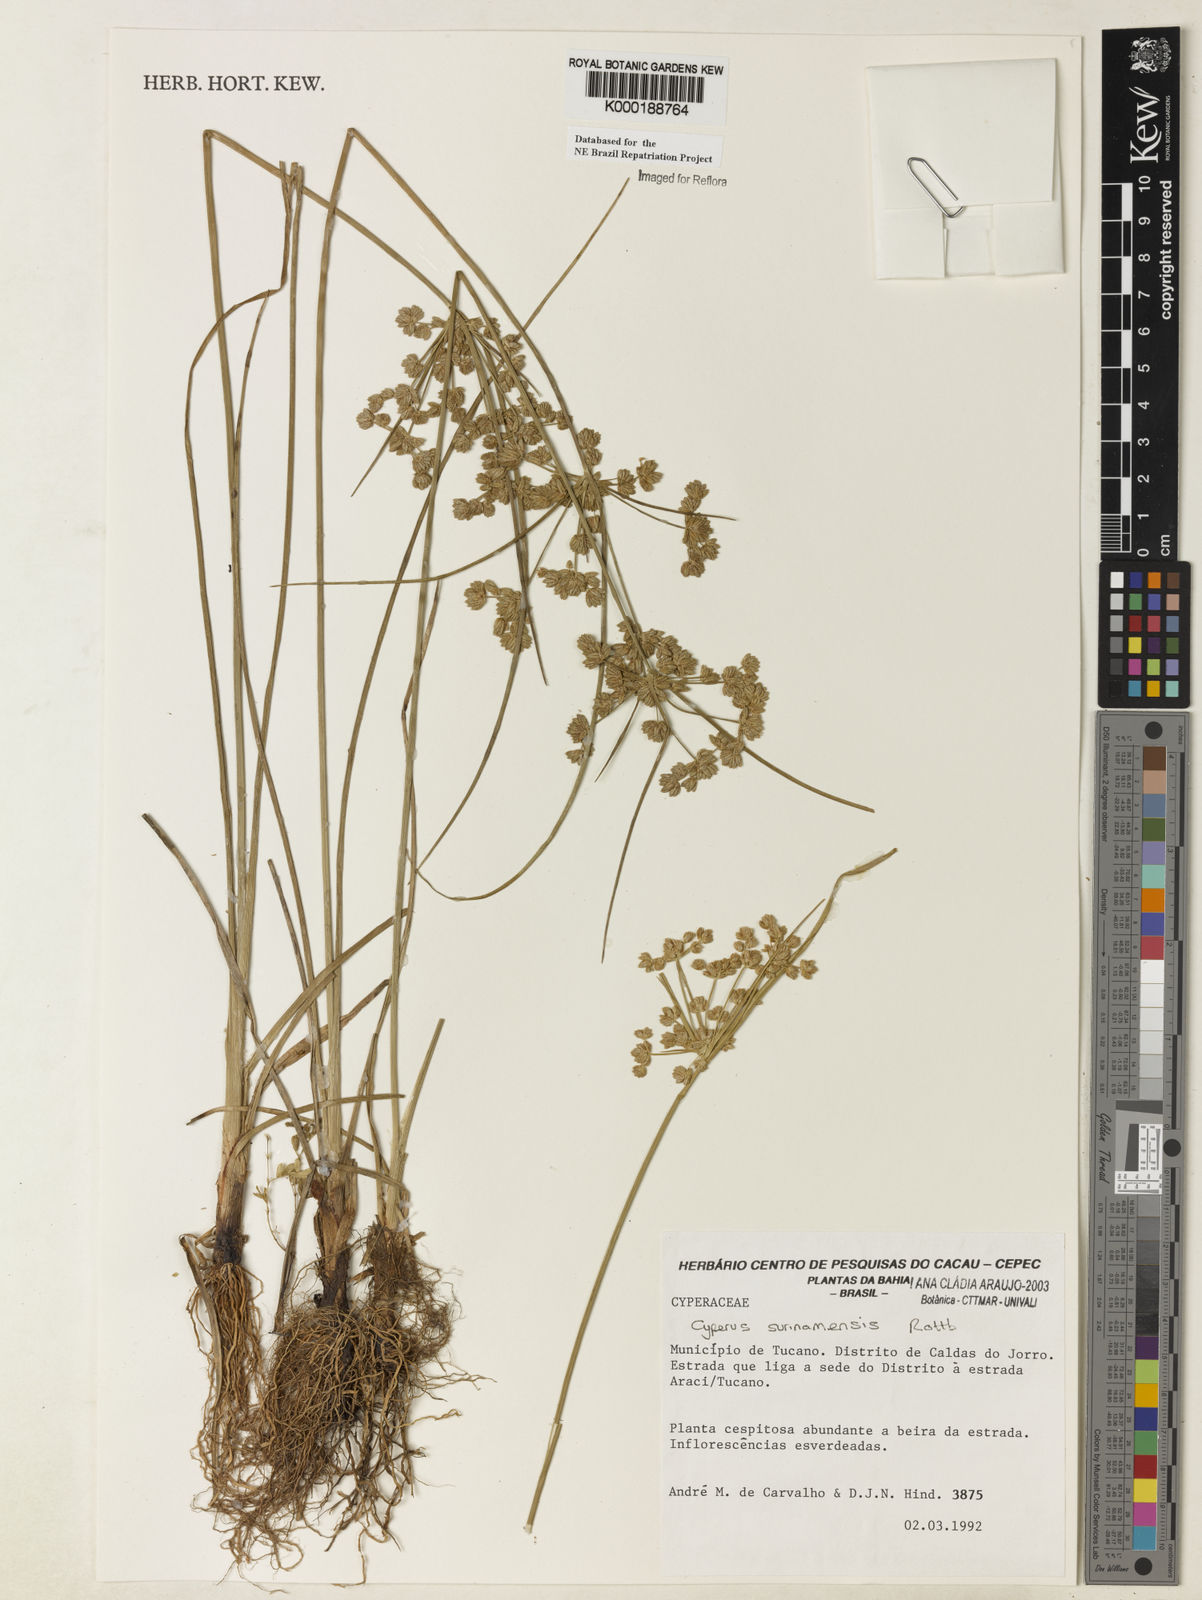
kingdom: Plantae
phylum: Tracheophyta
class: Liliopsida
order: Poales
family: Cyperaceae
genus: Cyperus
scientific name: Cyperus surinamensis
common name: Tropical flat sedge
